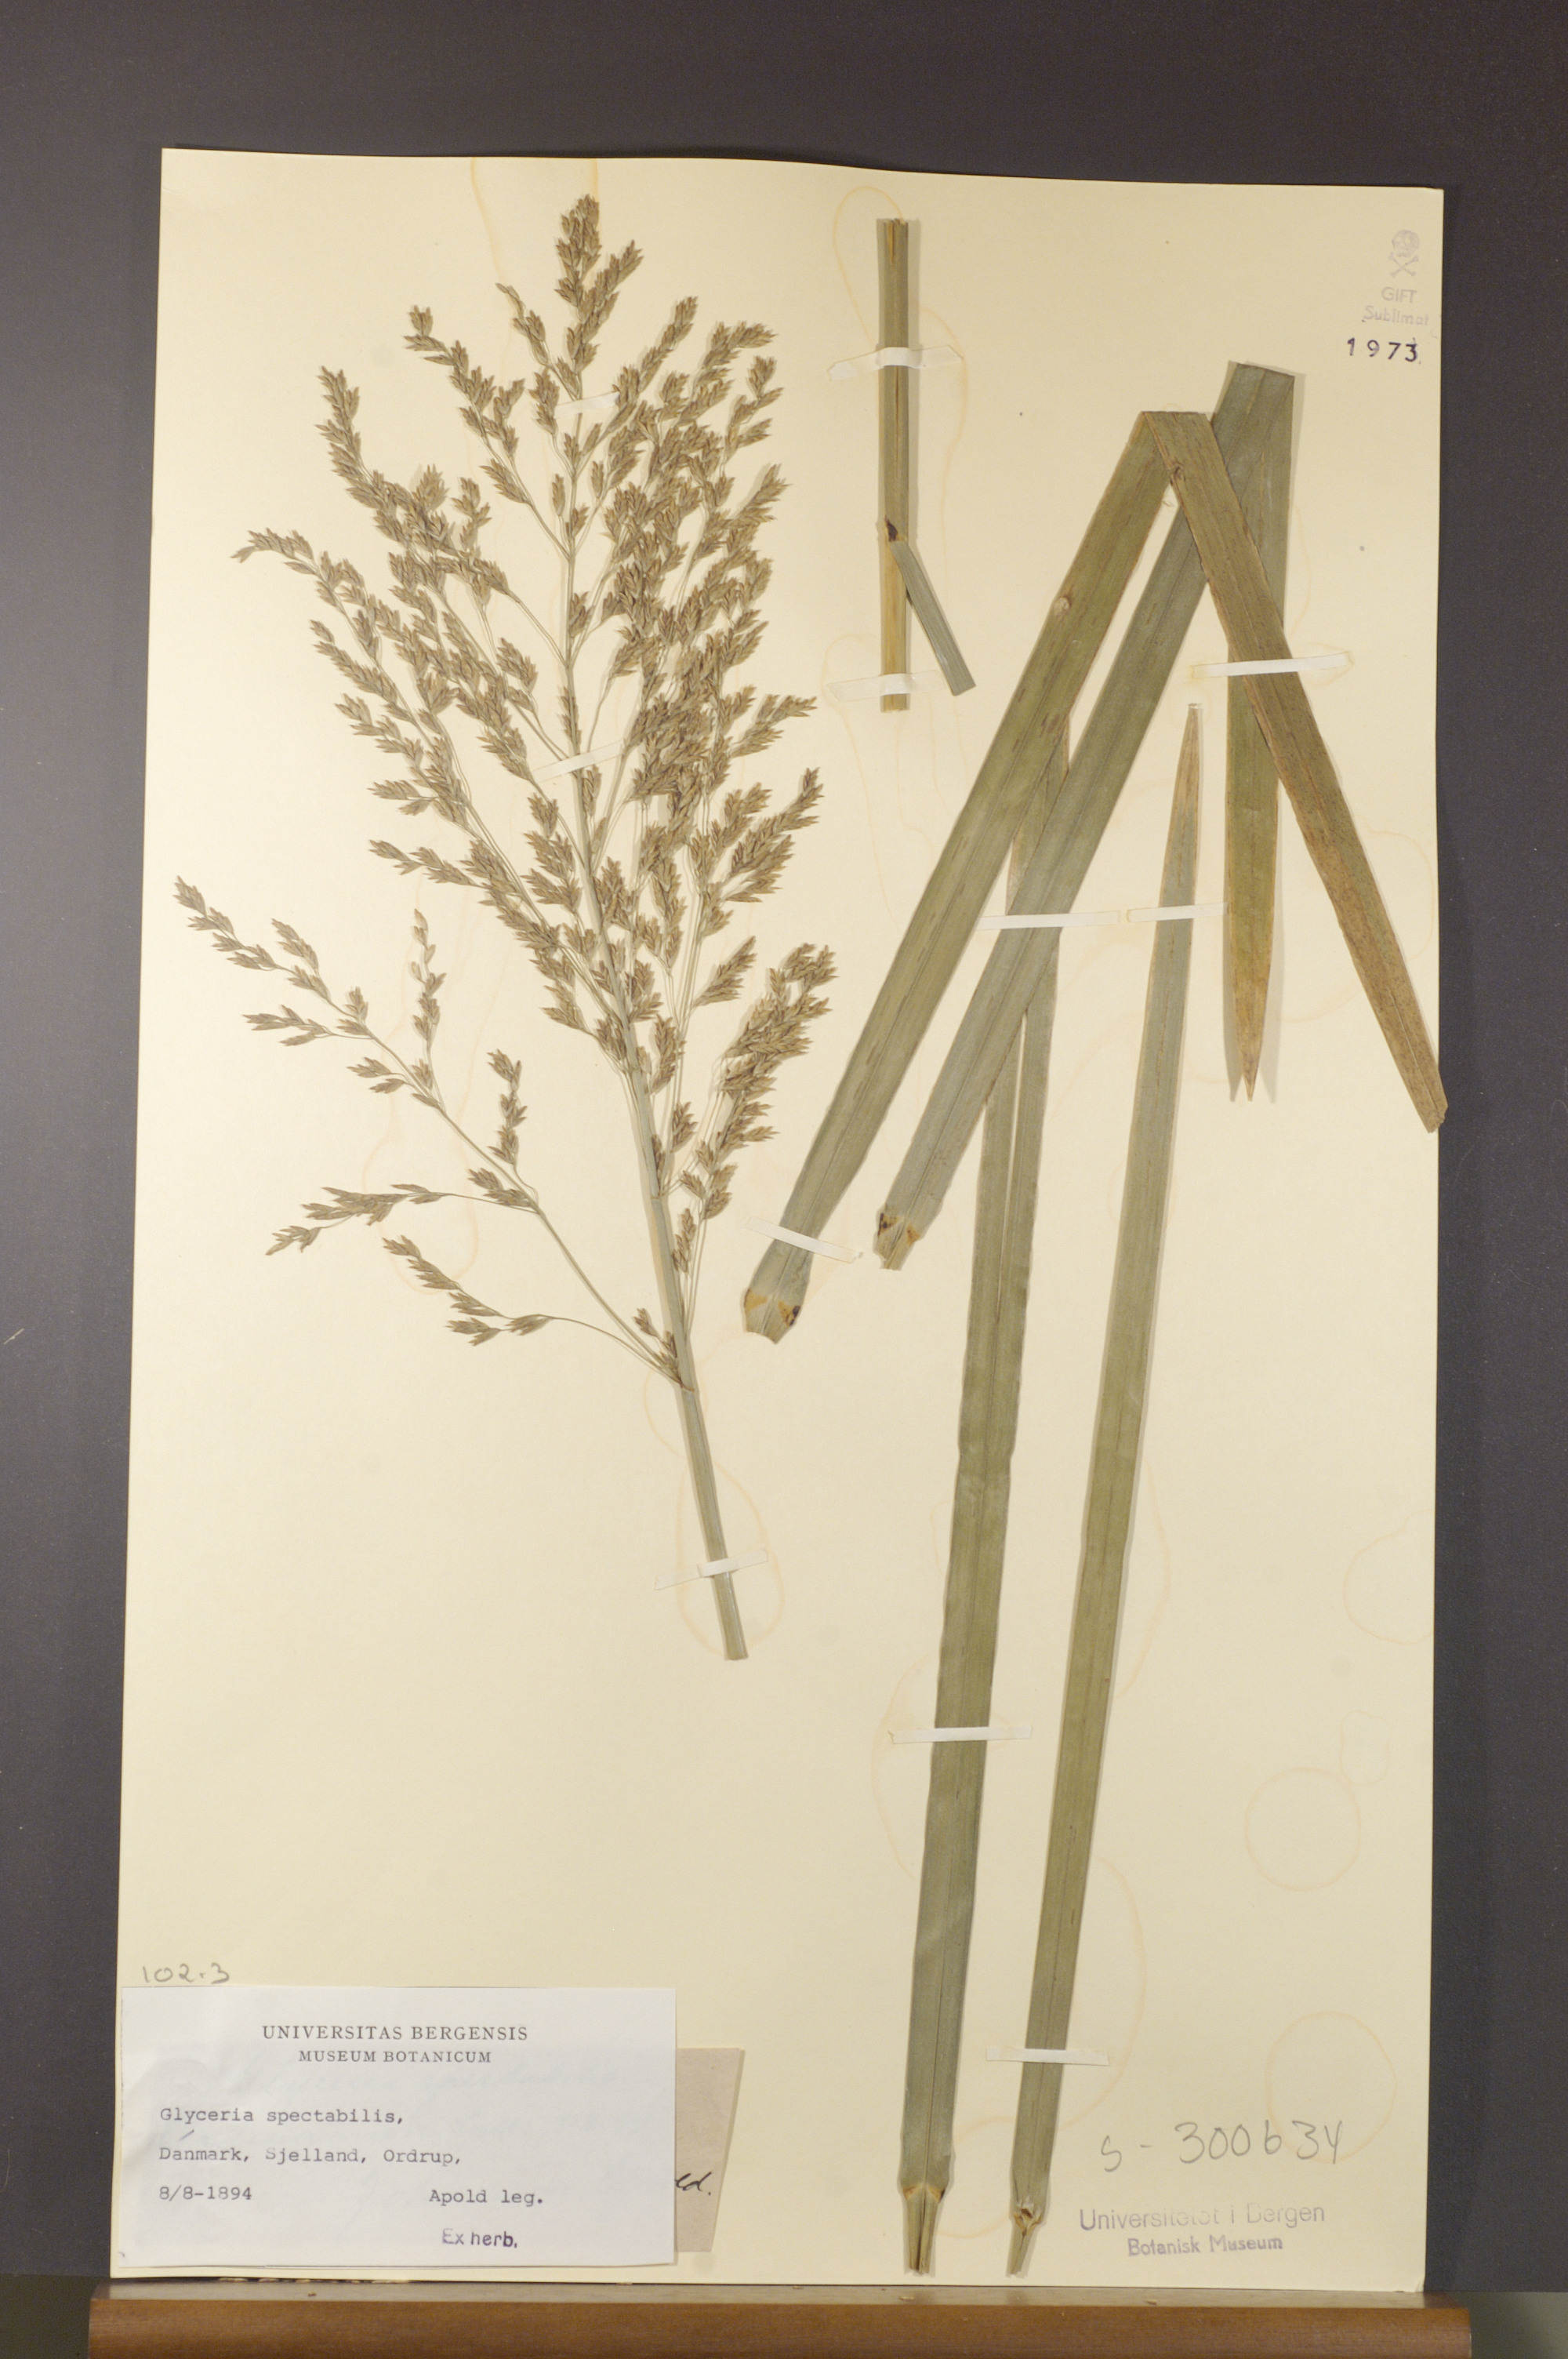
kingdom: Plantae
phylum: Tracheophyta
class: Liliopsida
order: Poales
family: Poaceae
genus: Glyceria
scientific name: Glyceria maxima
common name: Reed mannagrass
